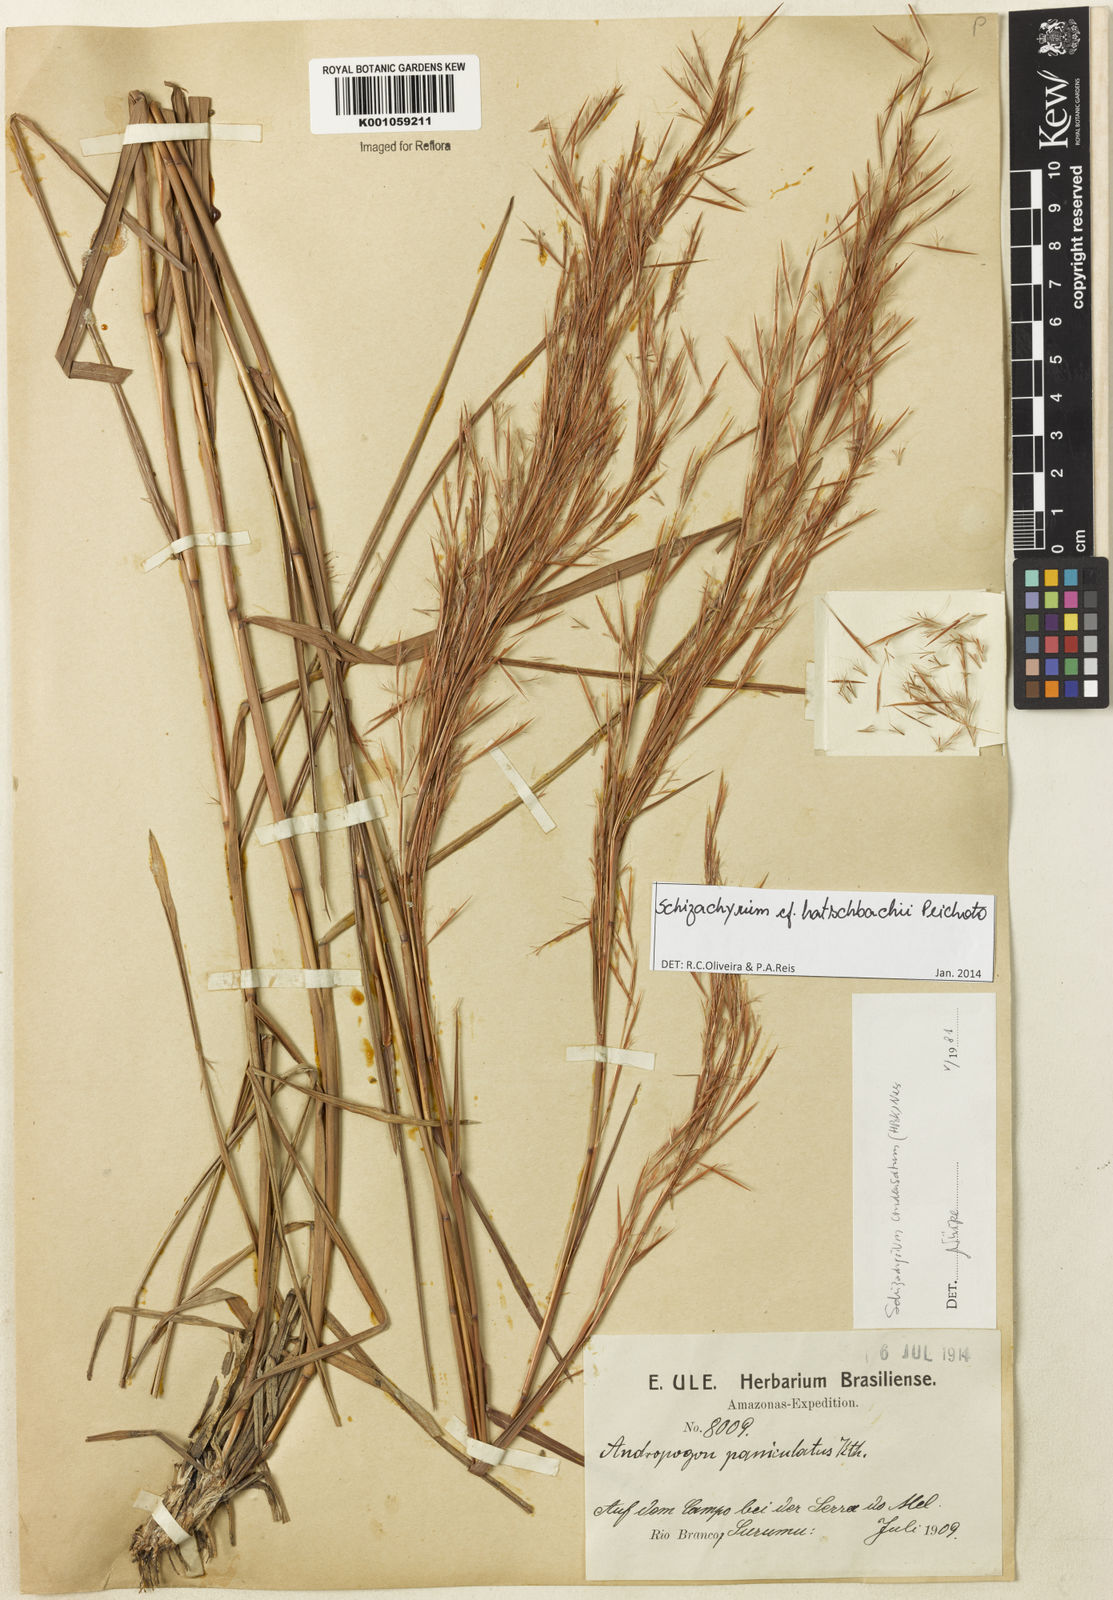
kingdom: Plantae
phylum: Tracheophyta
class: Liliopsida
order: Poales
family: Poaceae
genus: Schizachyrium
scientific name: Schizachyrium hatschbachii
